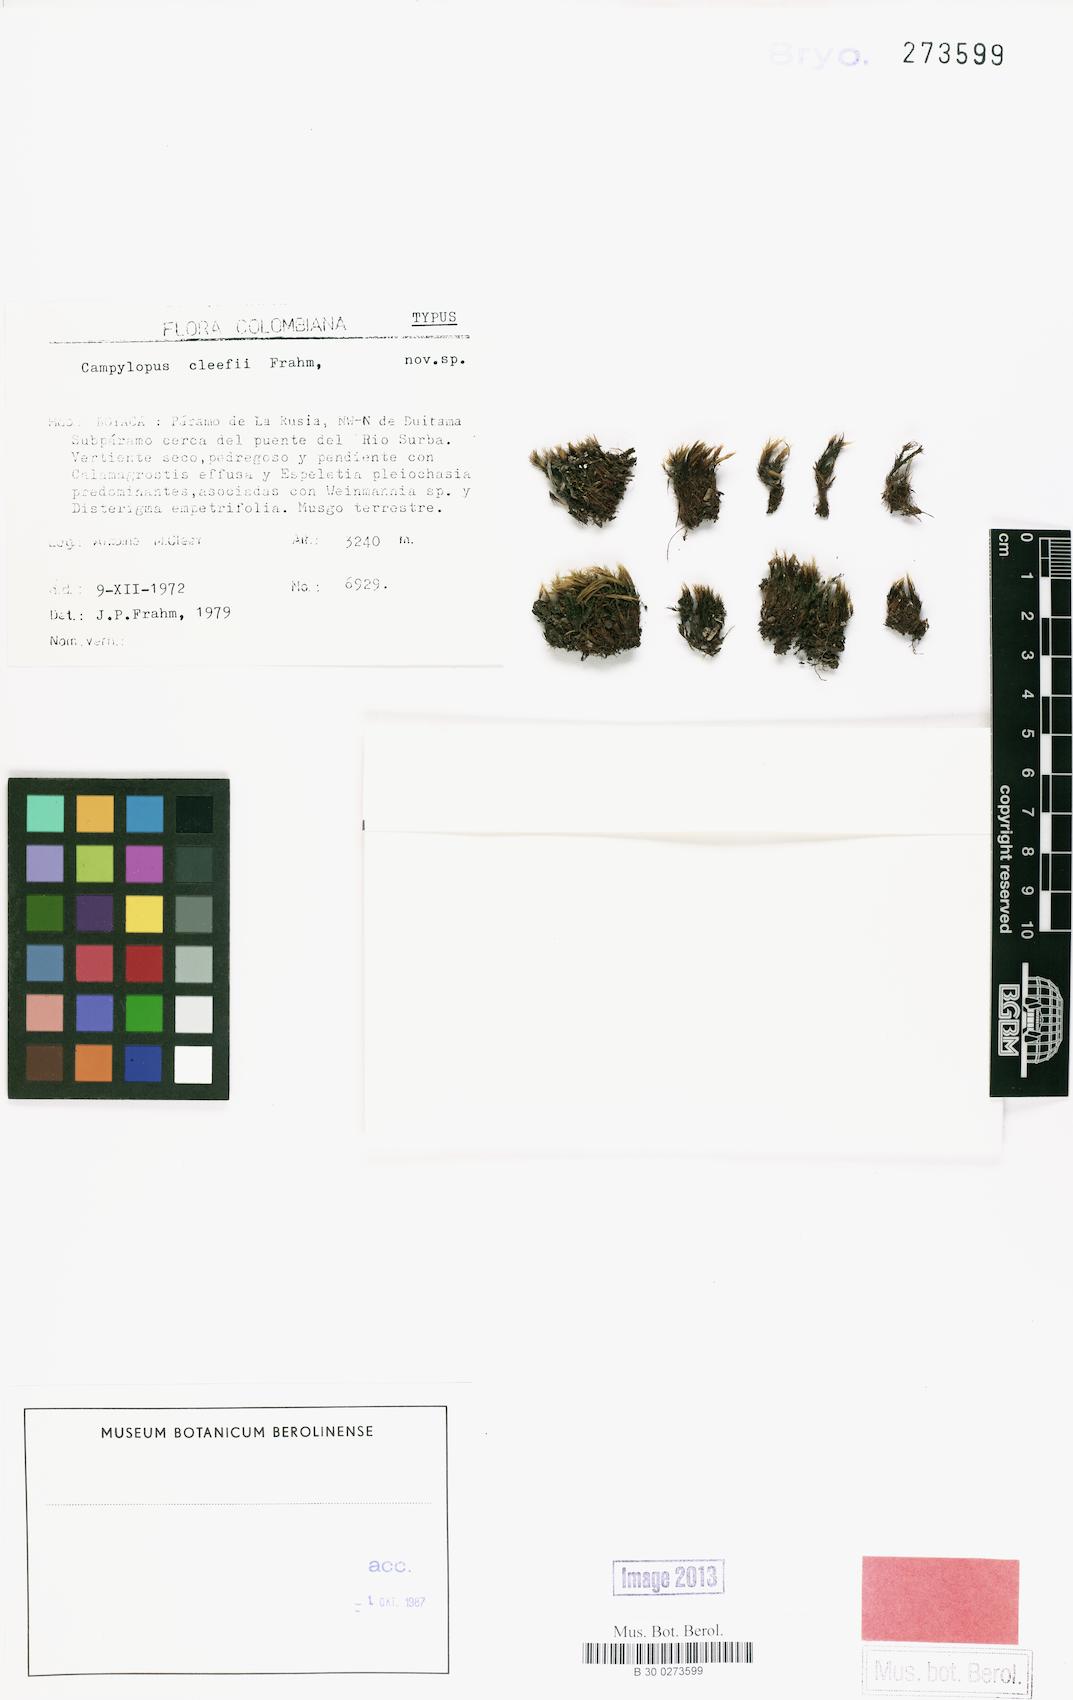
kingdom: Plantae
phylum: Bryophyta
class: Bryopsida
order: Dicranales
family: Leucobryaceae
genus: Campylopus
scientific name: Campylopus cleefii
